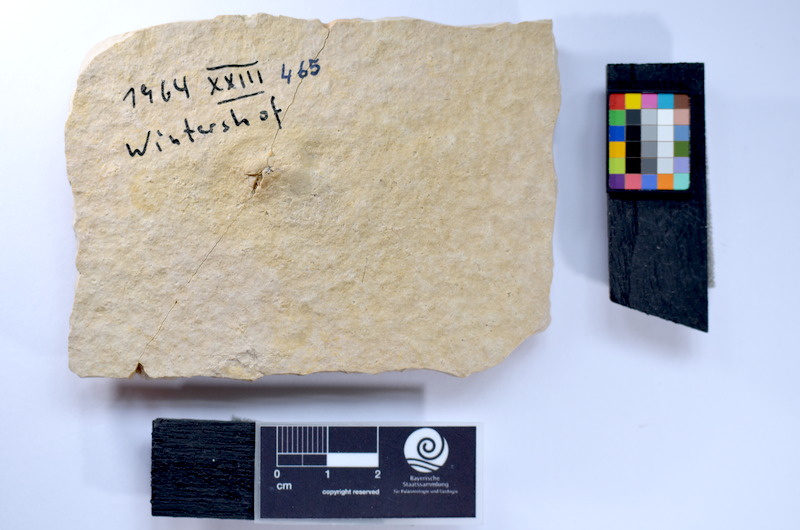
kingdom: Animalia
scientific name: Animalia
